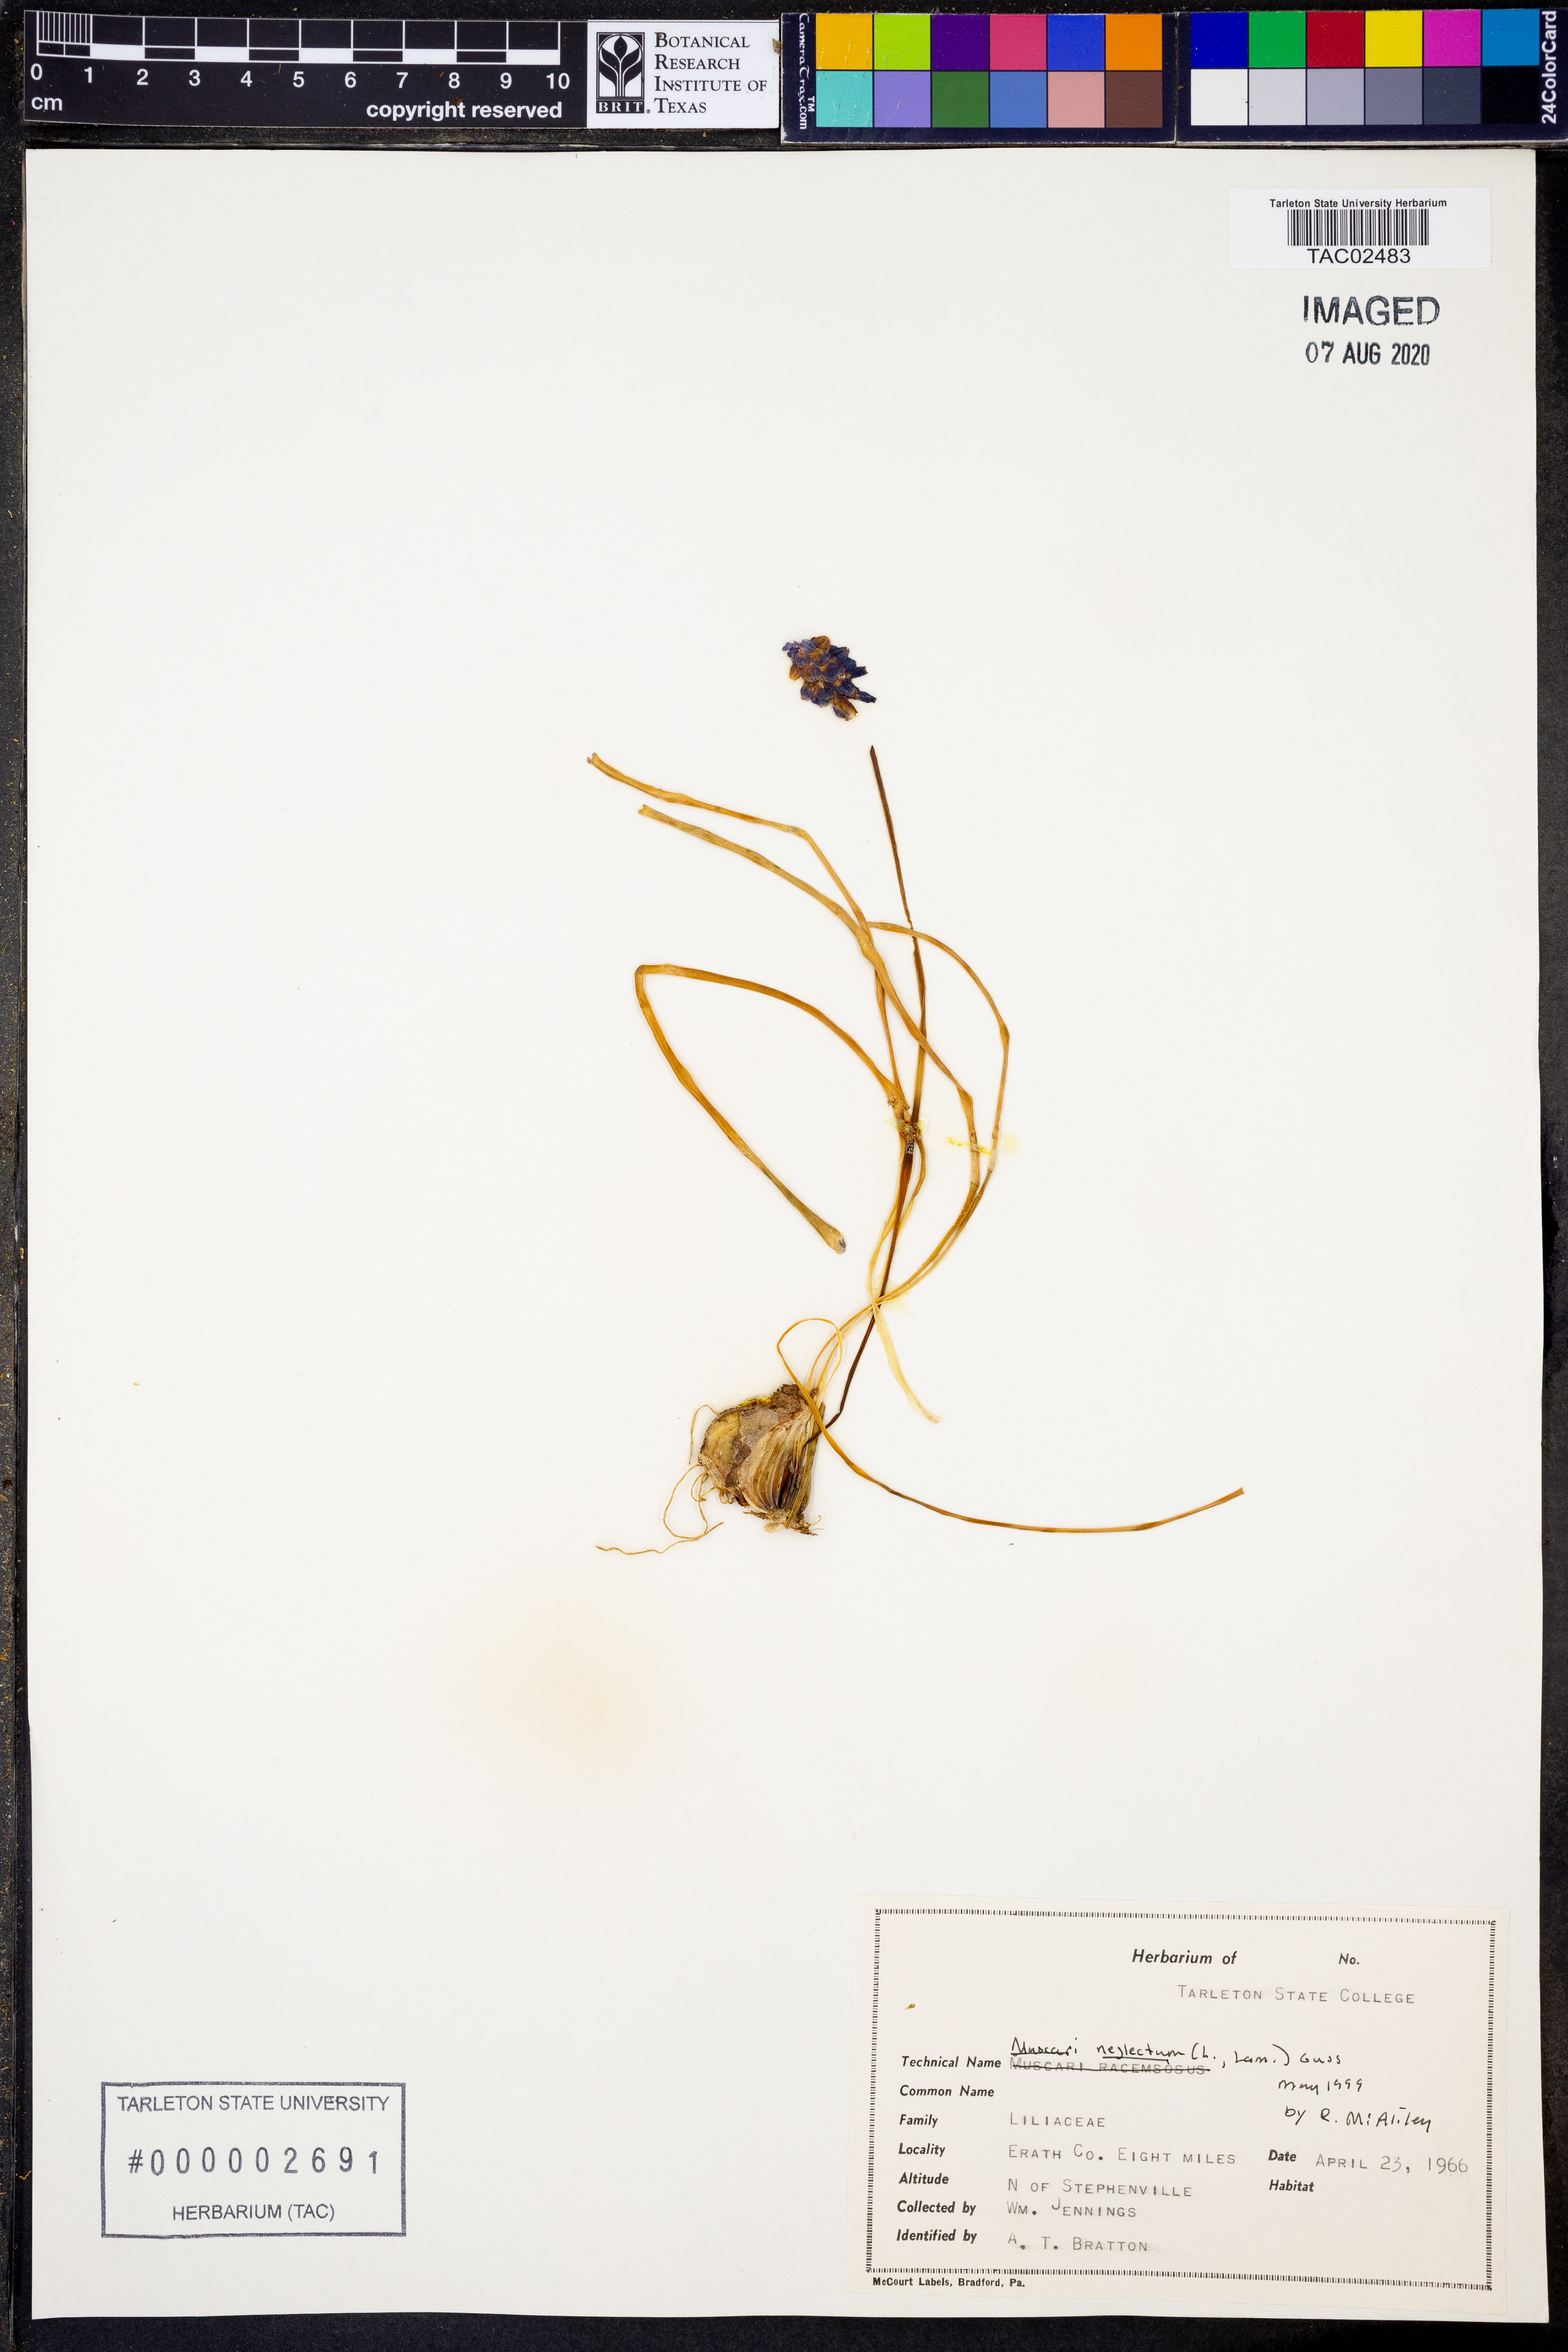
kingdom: Plantae
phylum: Tracheophyta
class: Liliopsida
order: Asparagales
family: Asparagaceae
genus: Muscari
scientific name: Muscari neglectum
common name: Grape-hyacinth
